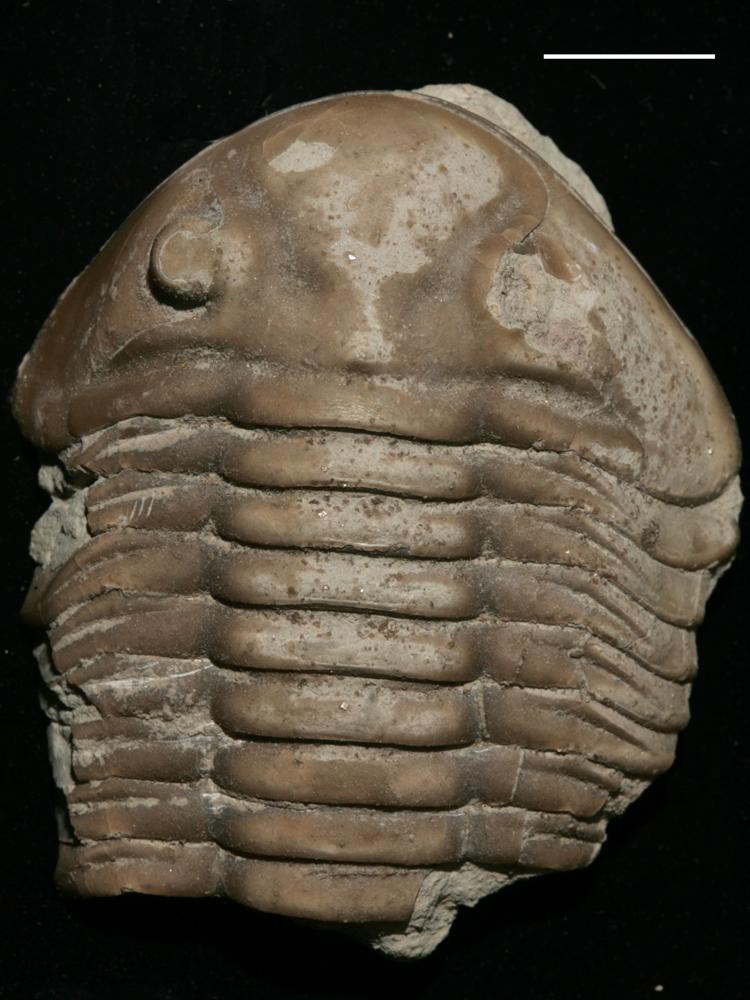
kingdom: Animalia
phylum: Arthropoda
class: Trilobita
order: Asaphida
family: Asaphidae
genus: Asaphus
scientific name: Asaphus expansus
